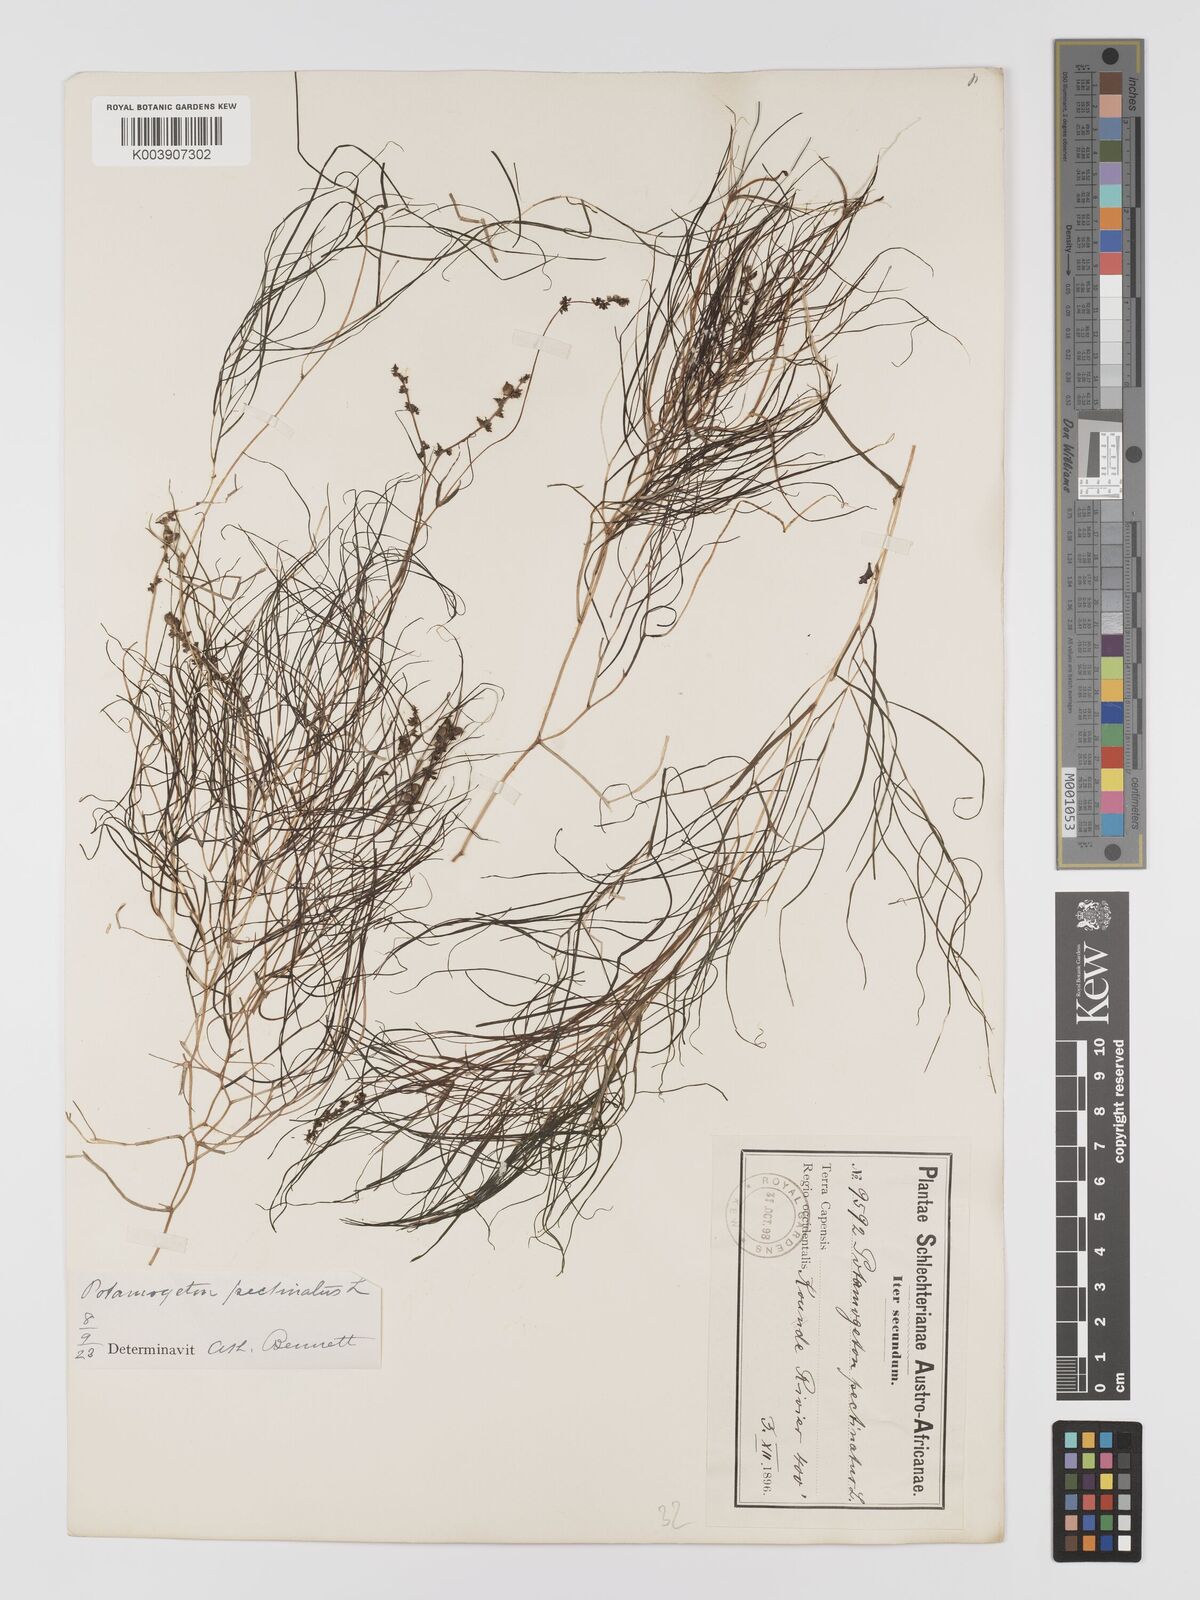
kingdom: Plantae
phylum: Tracheophyta
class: Liliopsida
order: Alismatales
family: Potamogetonaceae
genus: Stuckenia
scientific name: Stuckenia pectinata
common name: Sago pondweed
